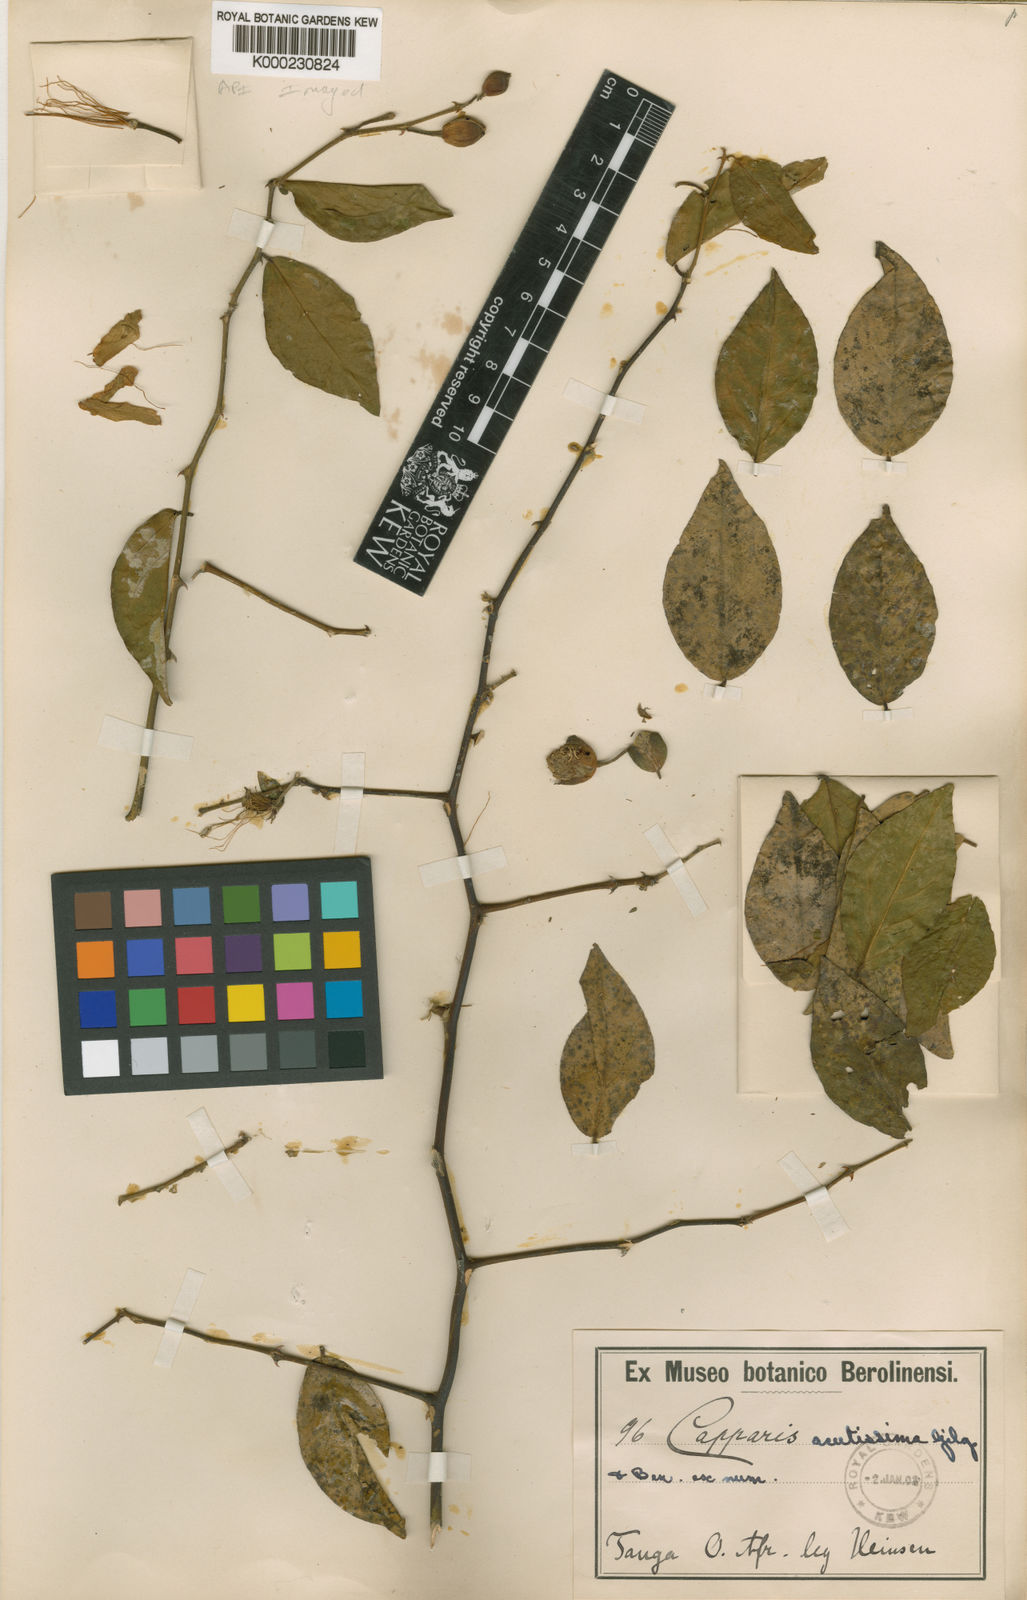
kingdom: Plantae
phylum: Tracheophyta
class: Magnoliopsida
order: Brassicales
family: Capparaceae
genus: Capparis
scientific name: Capparis zeylanica
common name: Ceylon caper
